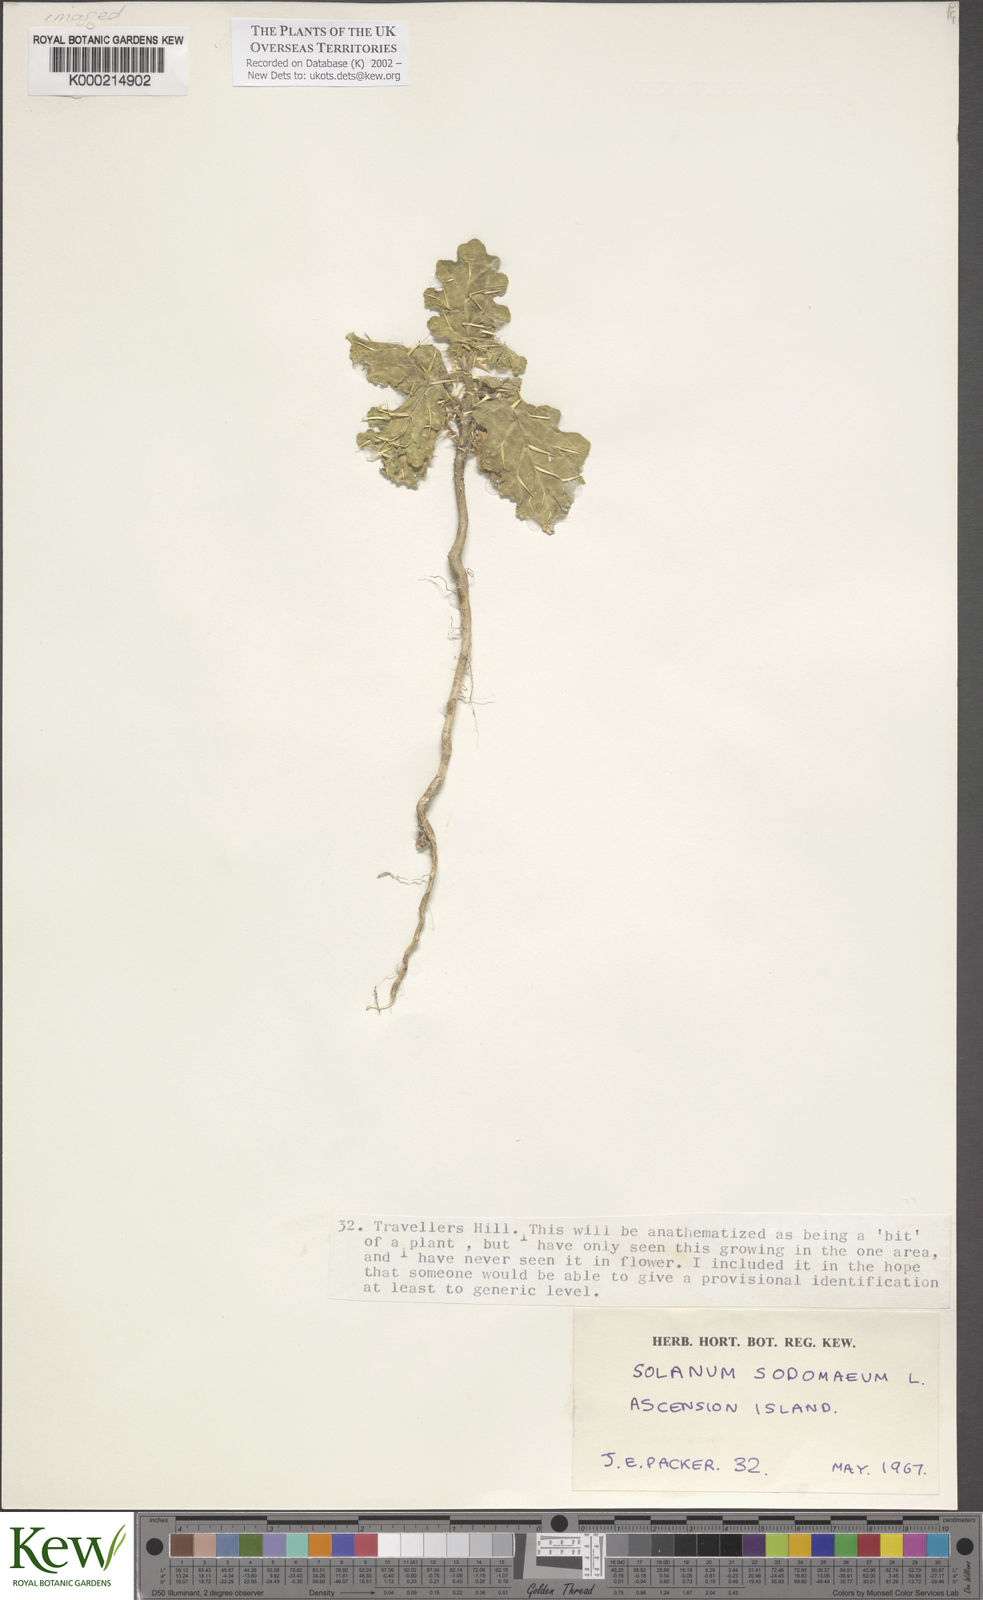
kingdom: Plantae
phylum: Tracheophyta
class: Magnoliopsida
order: Solanales
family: Solanaceae
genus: Solanum
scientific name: Solanum linnaeanum
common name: Nightshade
